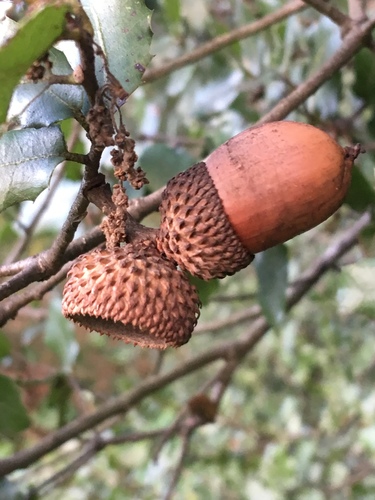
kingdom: Plantae
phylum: Tracheophyta
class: Magnoliopsida
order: Fagales
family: Fagaceae
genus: Quercus
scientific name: Quercus coccifera
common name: Kermes oak
